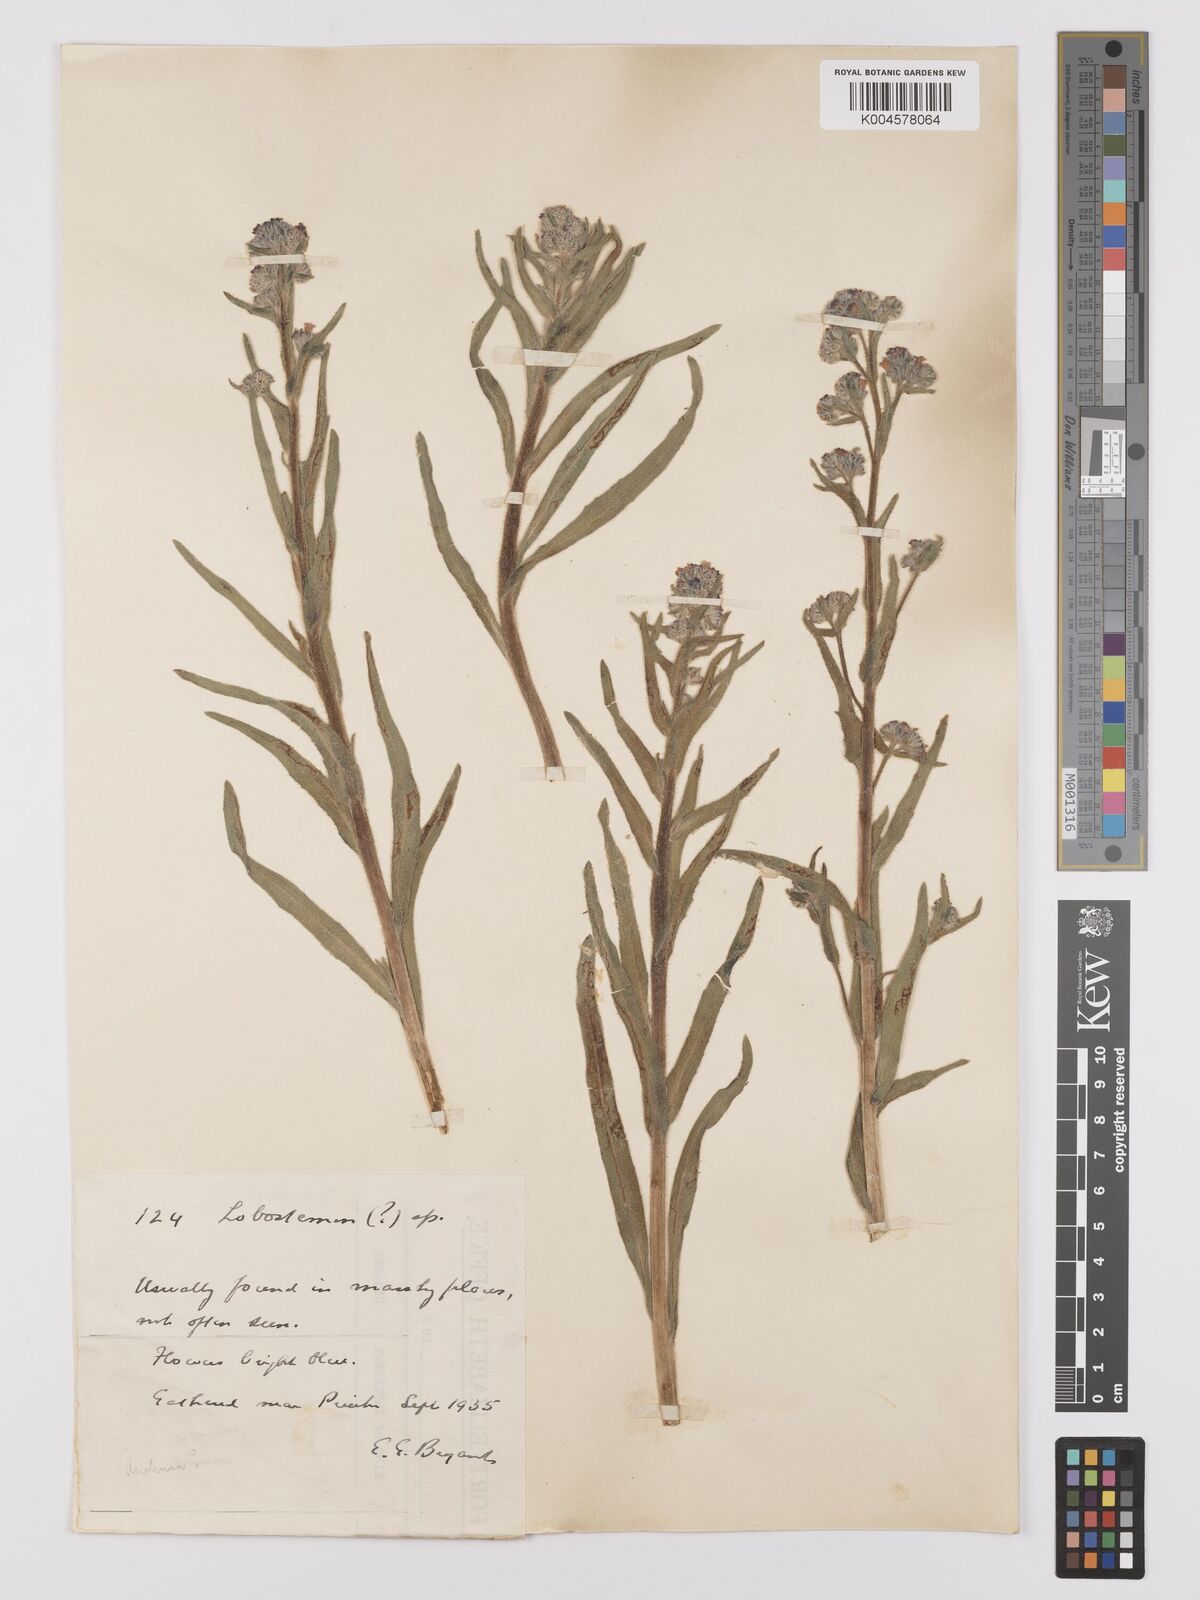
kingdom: Plantae
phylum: Tracheophyta
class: Magnoliopsida
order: Boraginales
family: Boraginaceae
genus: Anchusa
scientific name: Anchusa capensis
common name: Cape bugloss
